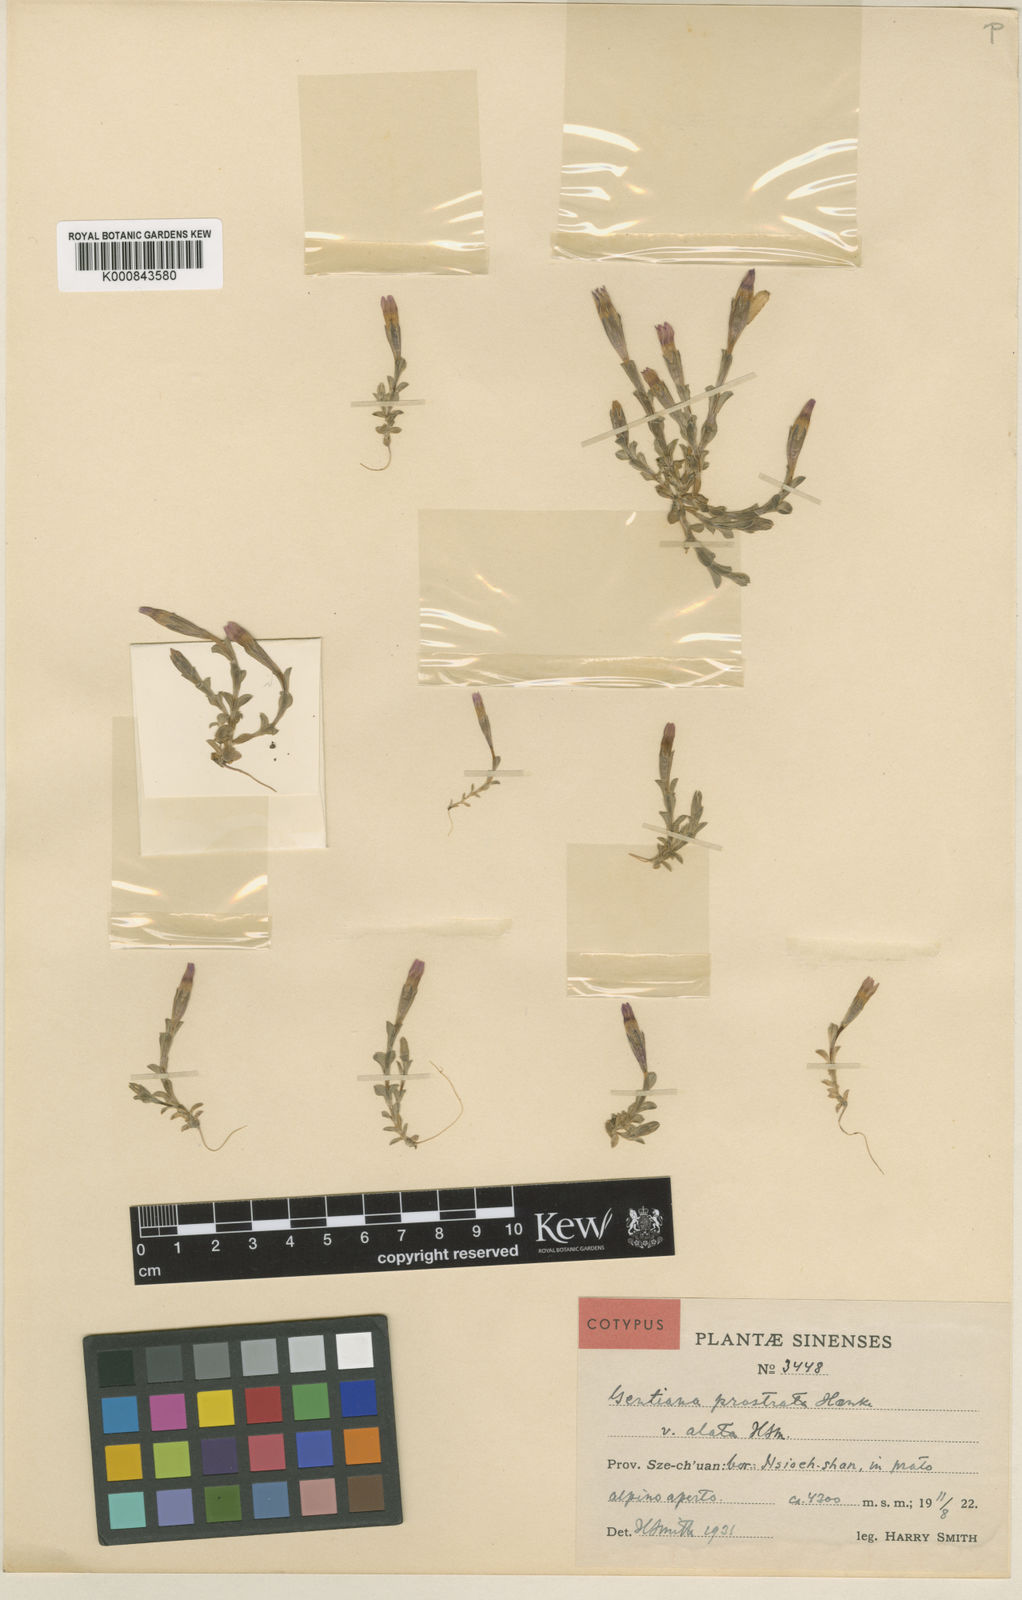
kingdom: Plantae
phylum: Tracheophyta
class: Magnoliopsida
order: Gentianales
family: Gentianaceae
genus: Gentiana
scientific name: Gentiana prostrata
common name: Moss gentian
